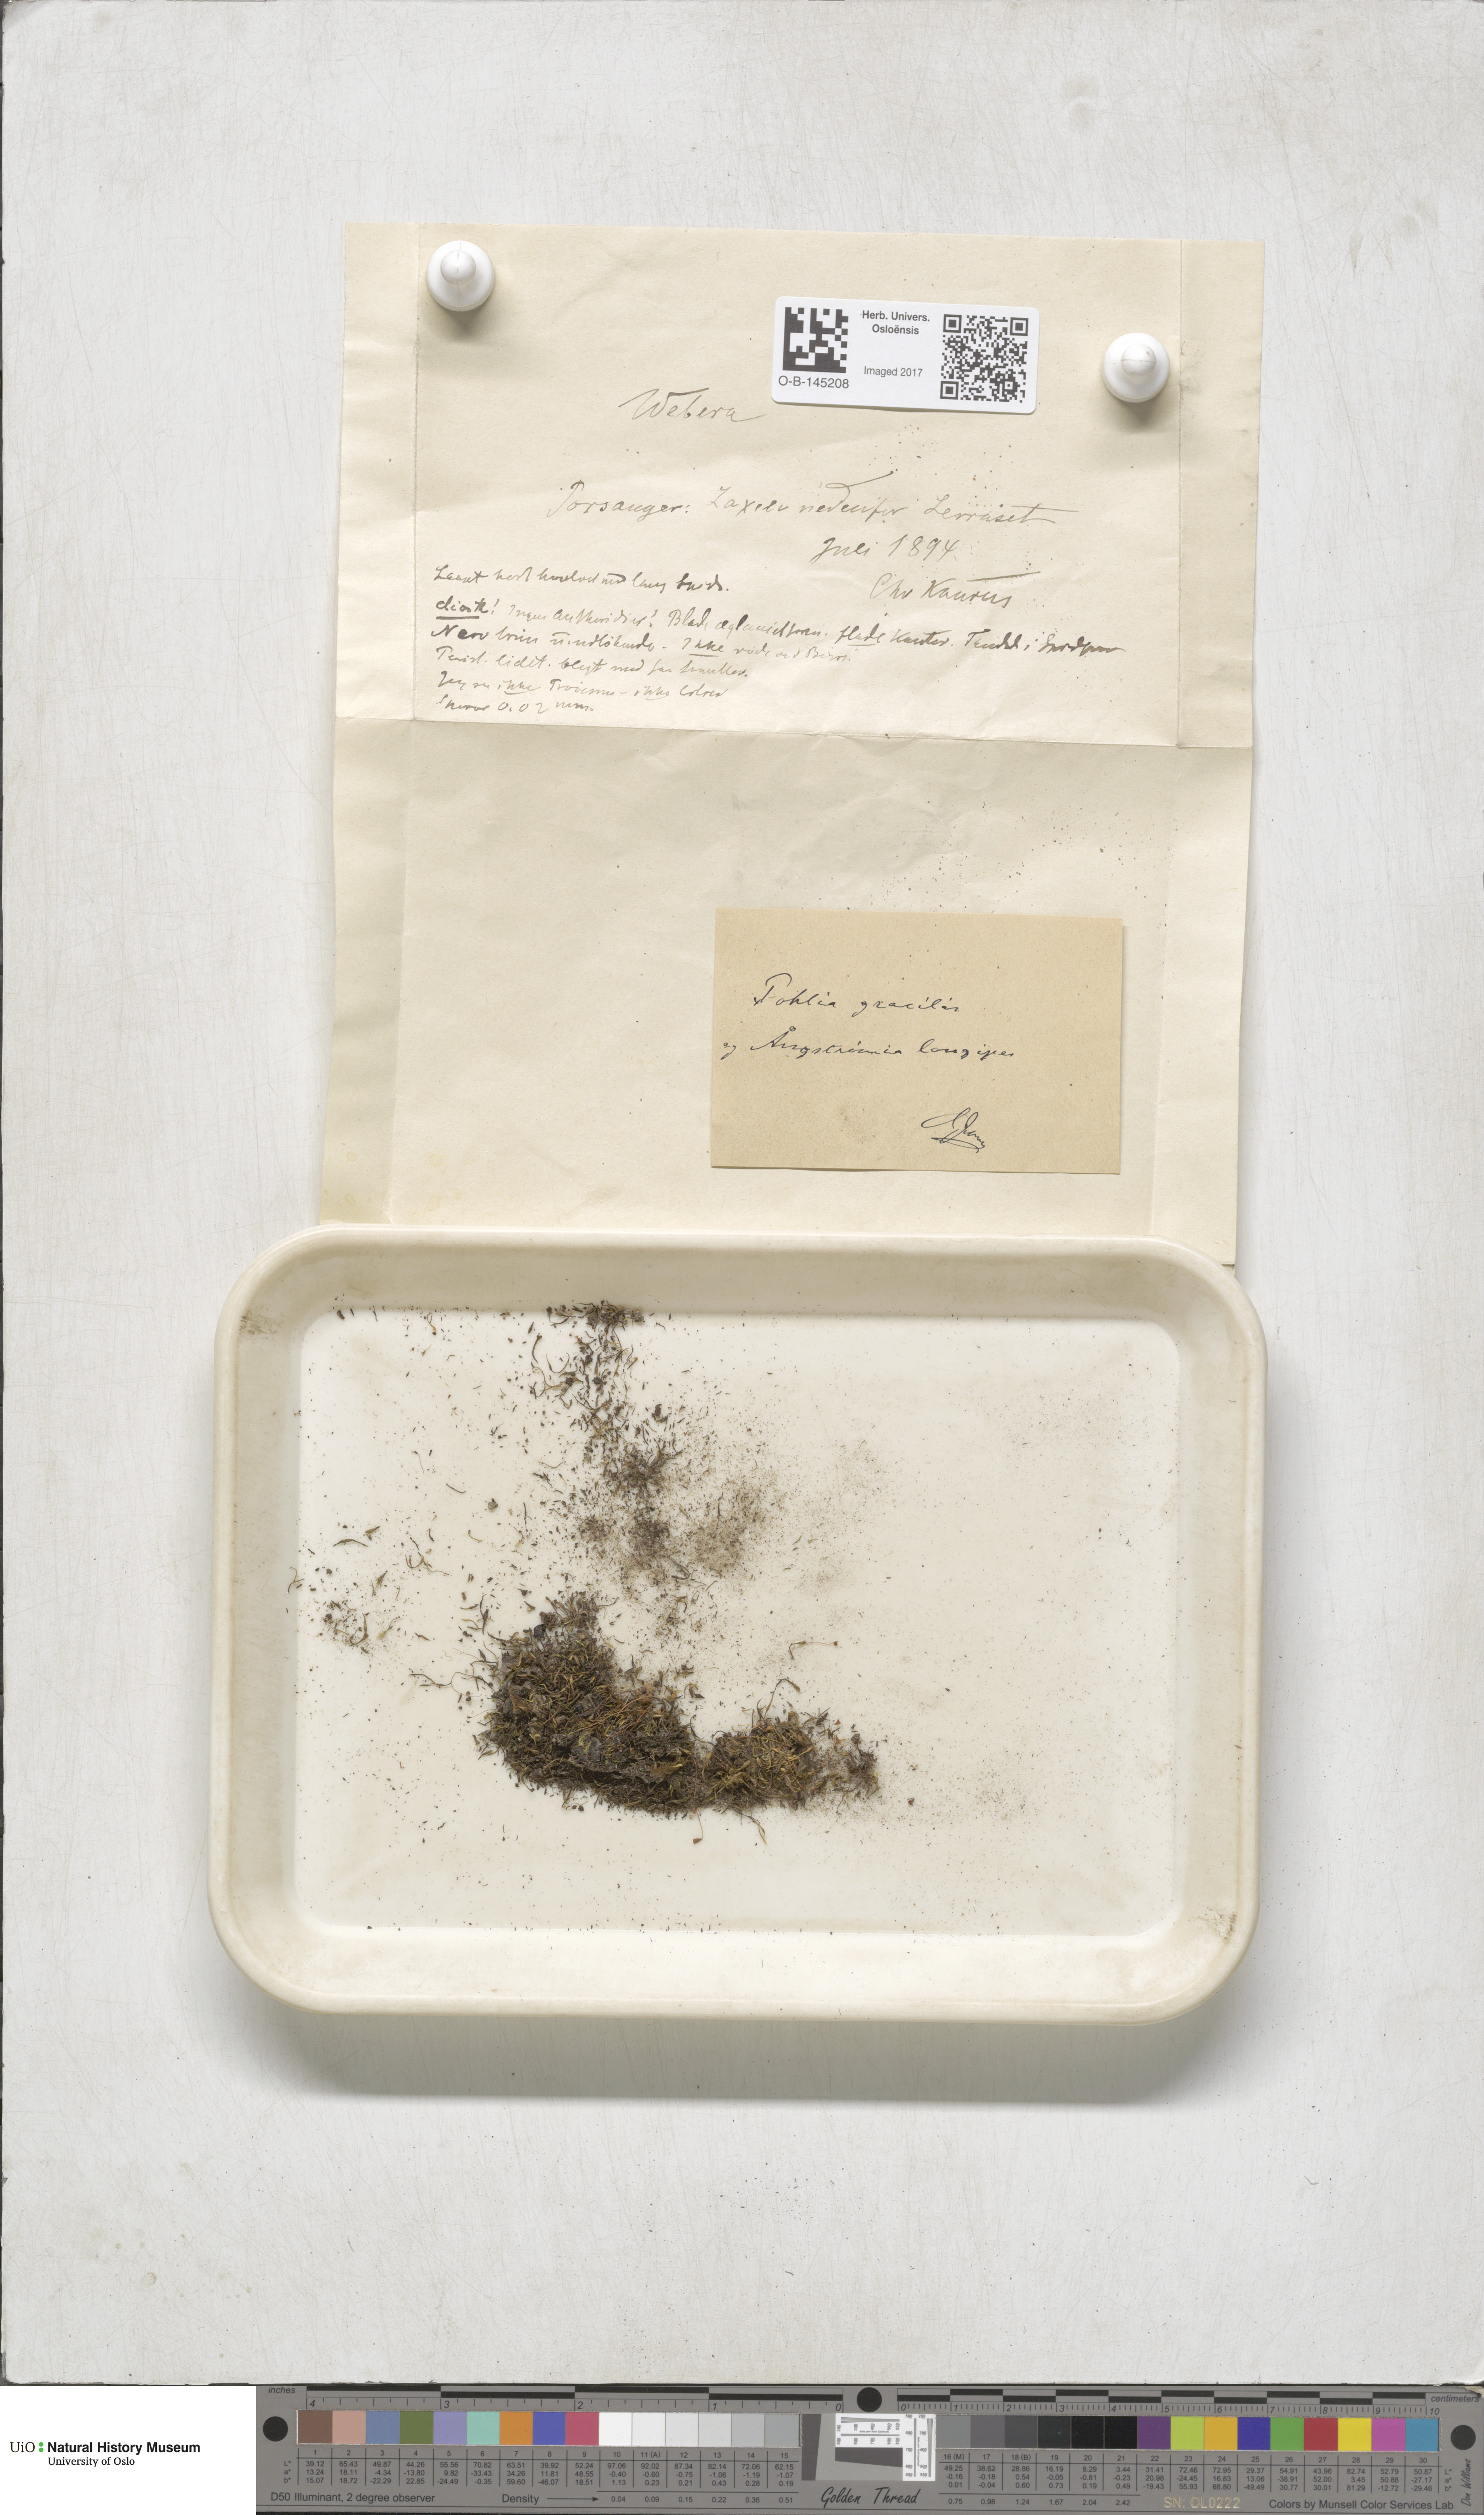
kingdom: Plantae
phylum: Bryophyta
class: Bryopsida
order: Bryales
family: Mniaceae
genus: Pohlia
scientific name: Pohlia filum
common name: Slender nodding moss
